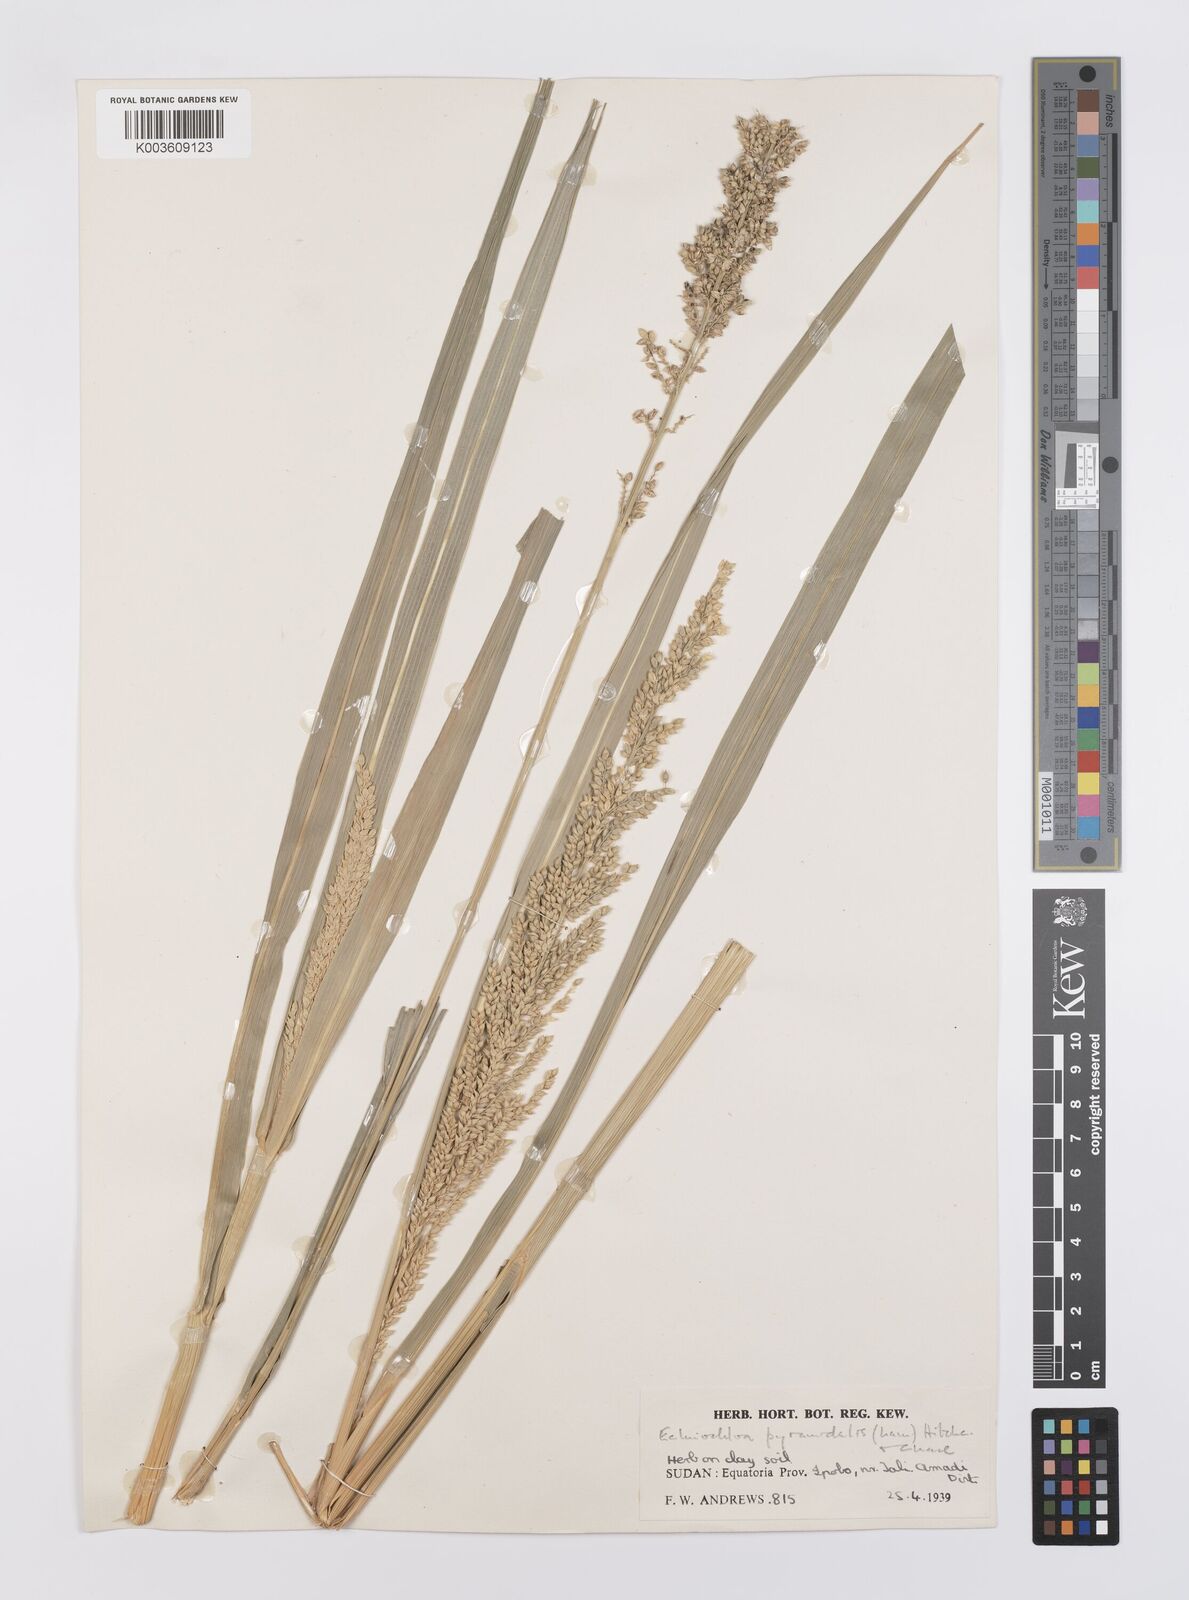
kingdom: Plantae
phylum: Tracheophyta
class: Liliopsida
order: Poales
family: Poaceae
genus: Echinochloa
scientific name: Echinochloa pyramidalis
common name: Antelope grass
